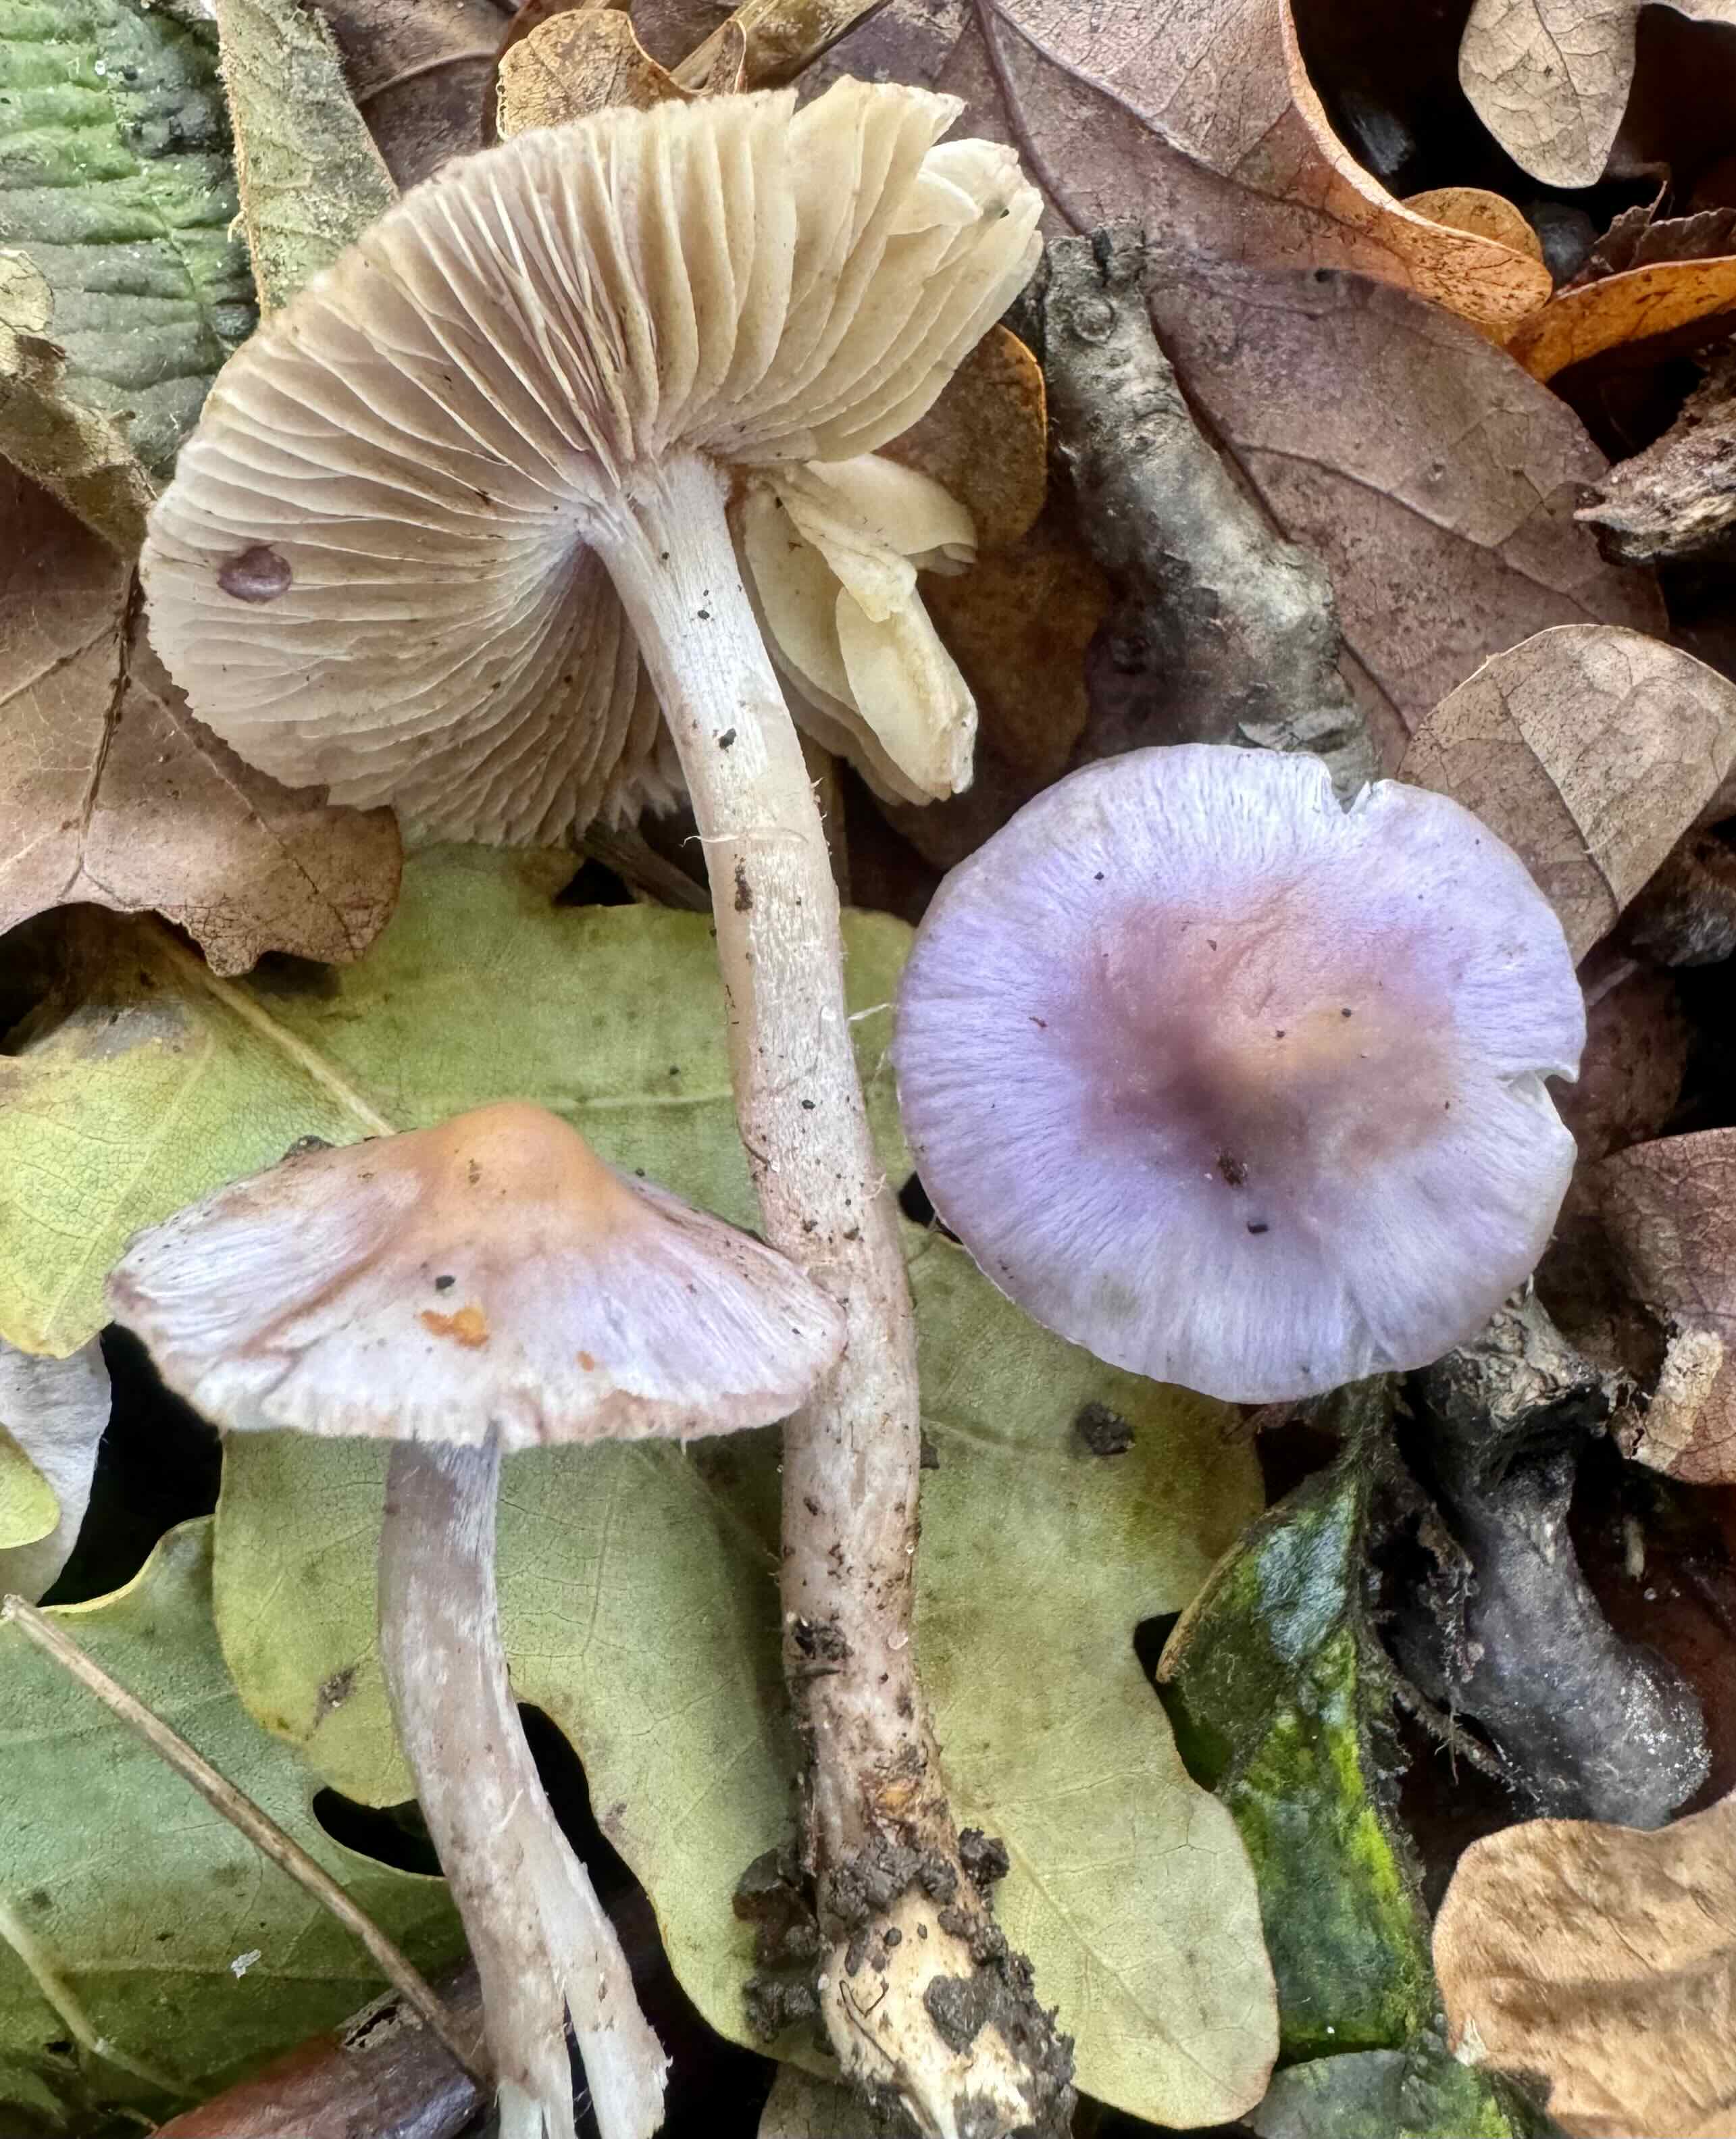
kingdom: Fungi
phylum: Basidiomycota
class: Agaricomycetes
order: Agaricales
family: Inocybaceae
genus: Inocybe
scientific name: Inocybe geophylla
